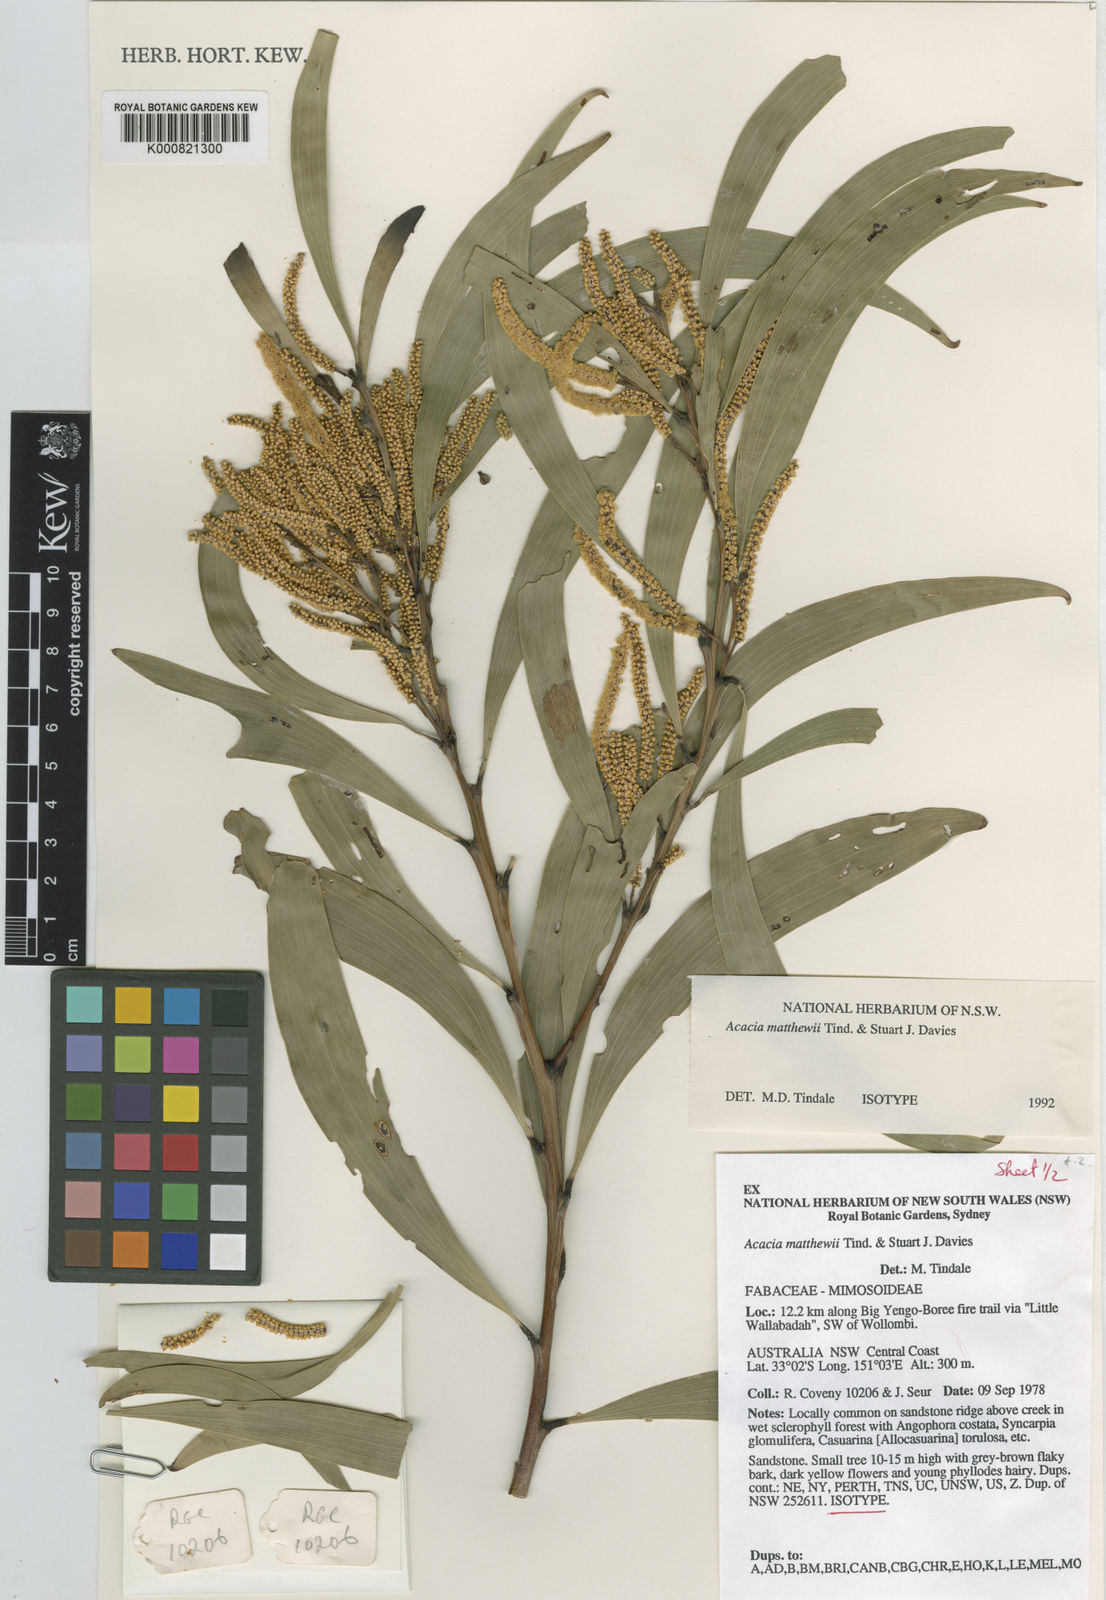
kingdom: Plantae
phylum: Tracheophyta
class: Magnoliopsida
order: Fabales
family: Fabaceae
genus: Acacia
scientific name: Acacia matthewii
